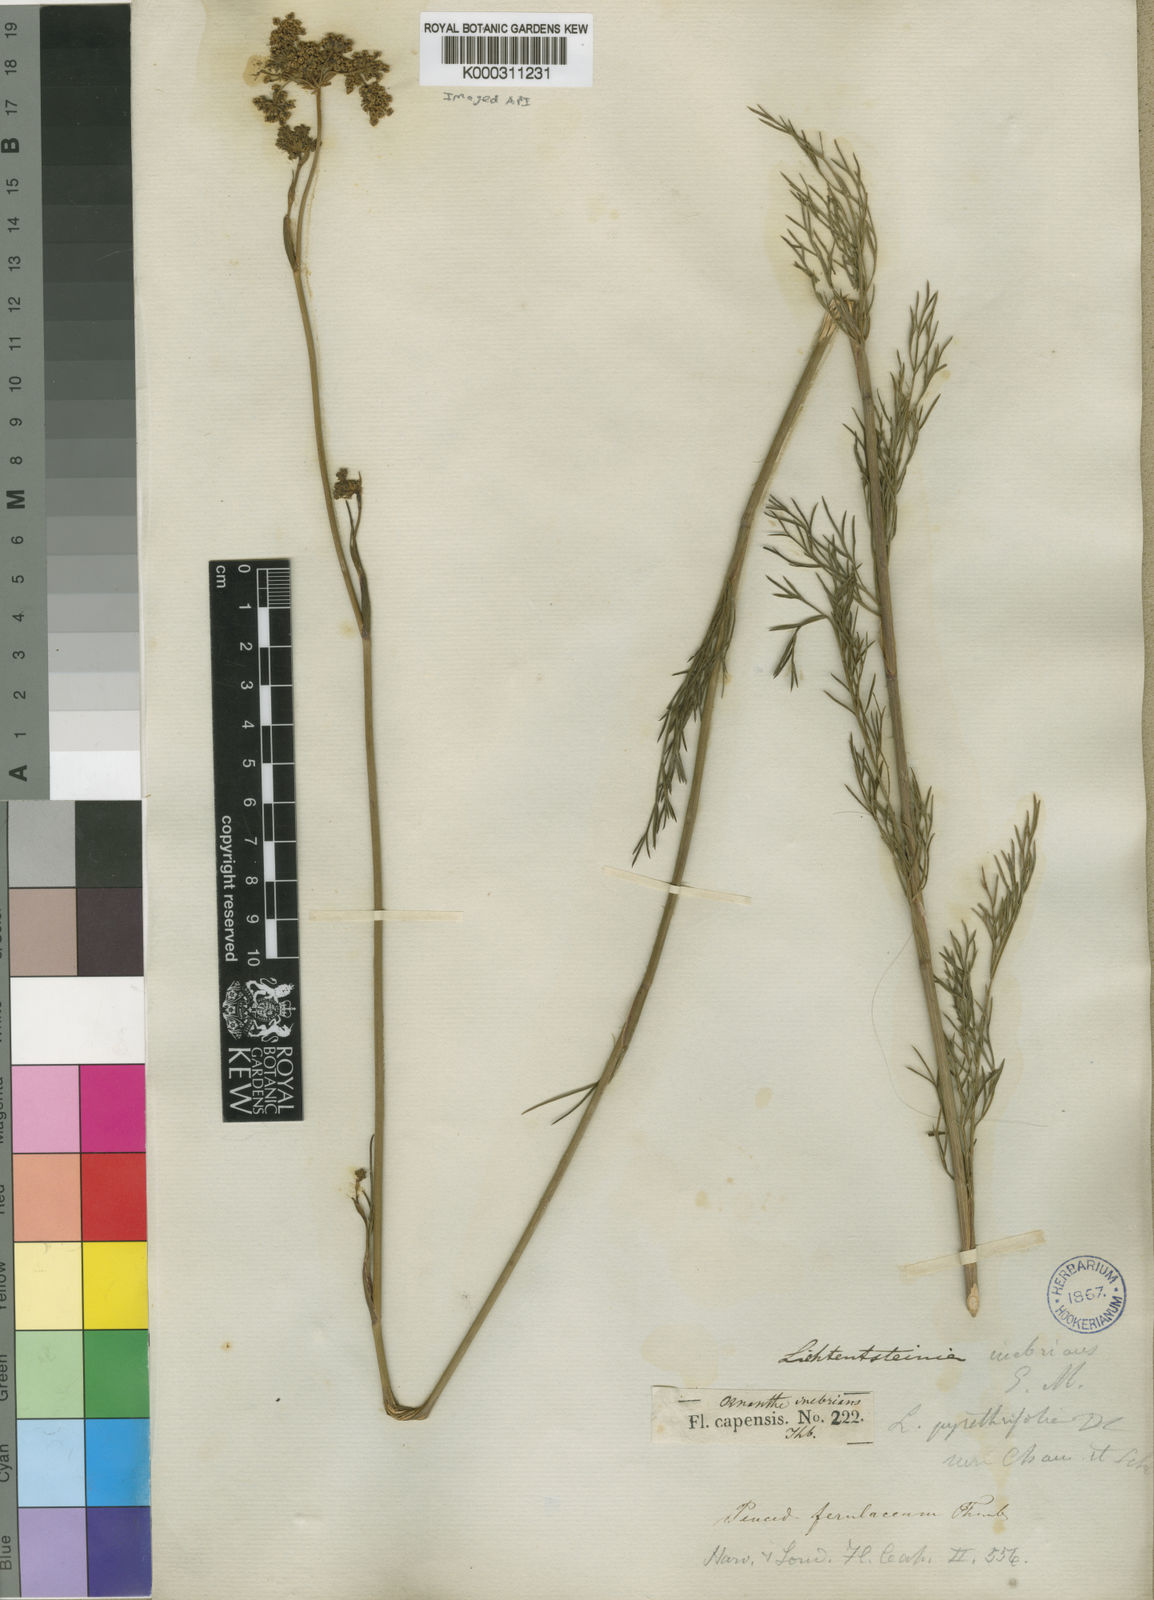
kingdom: Plantae
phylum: Tracheophyta
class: Magnoliopsida
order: Apiales
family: Apiaceae
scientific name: Apiaceae
